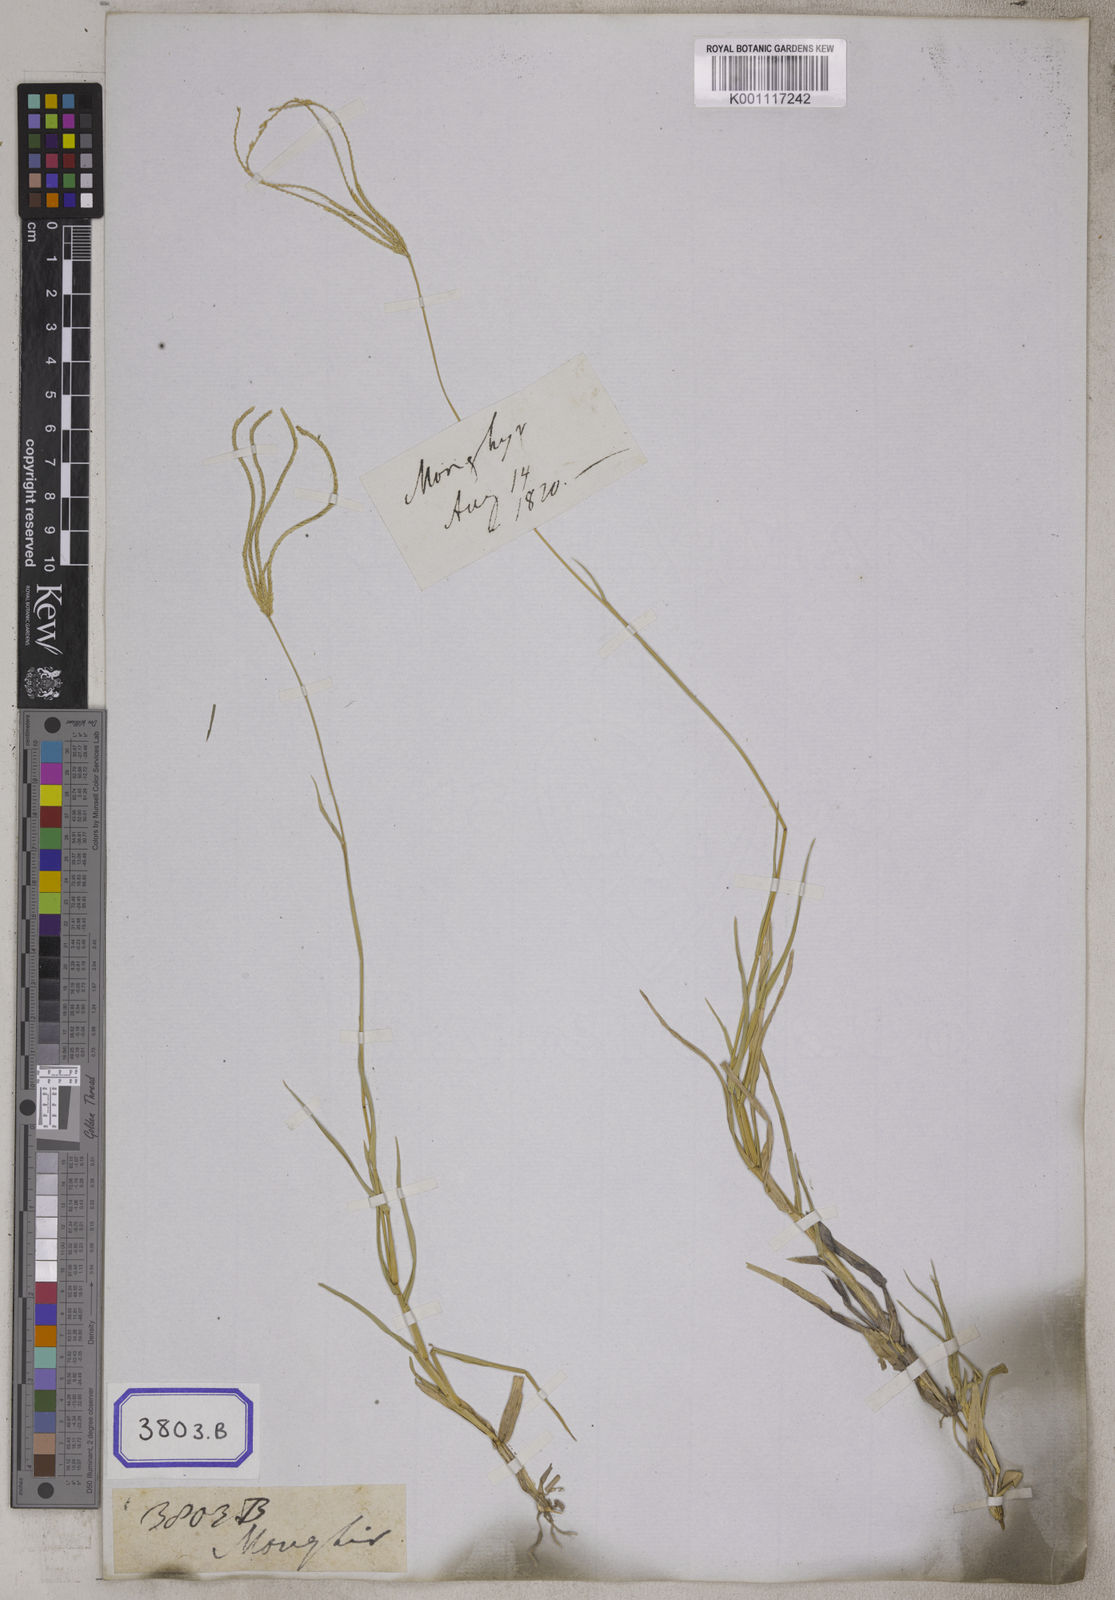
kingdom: Plantae
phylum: Tracheophyta
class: Liliopsida
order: Poales
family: Poaceae
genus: Cynodon
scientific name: Cynodon dactylon
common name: Bermuda grass
